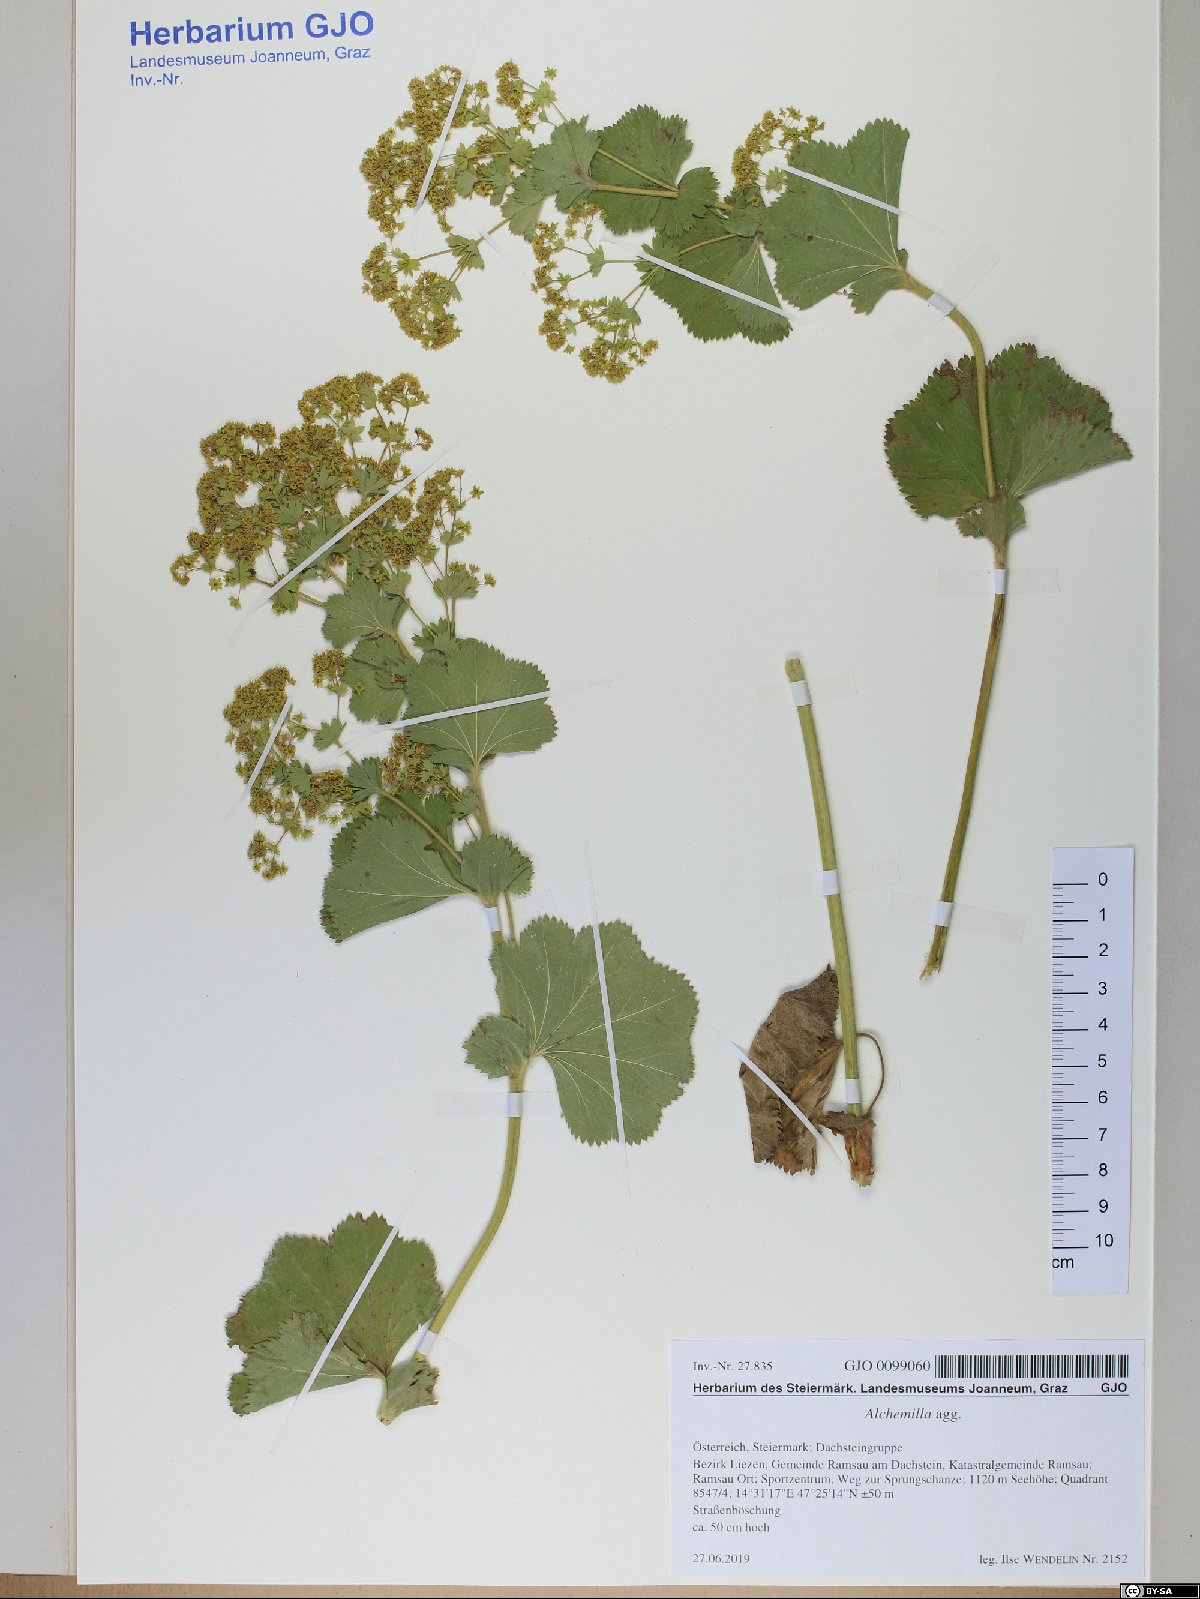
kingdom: Plantae
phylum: Tracheophyta
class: Magnoliopsida
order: Rosales
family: Rosaceae
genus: Alchemilla
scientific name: Alchemilla
